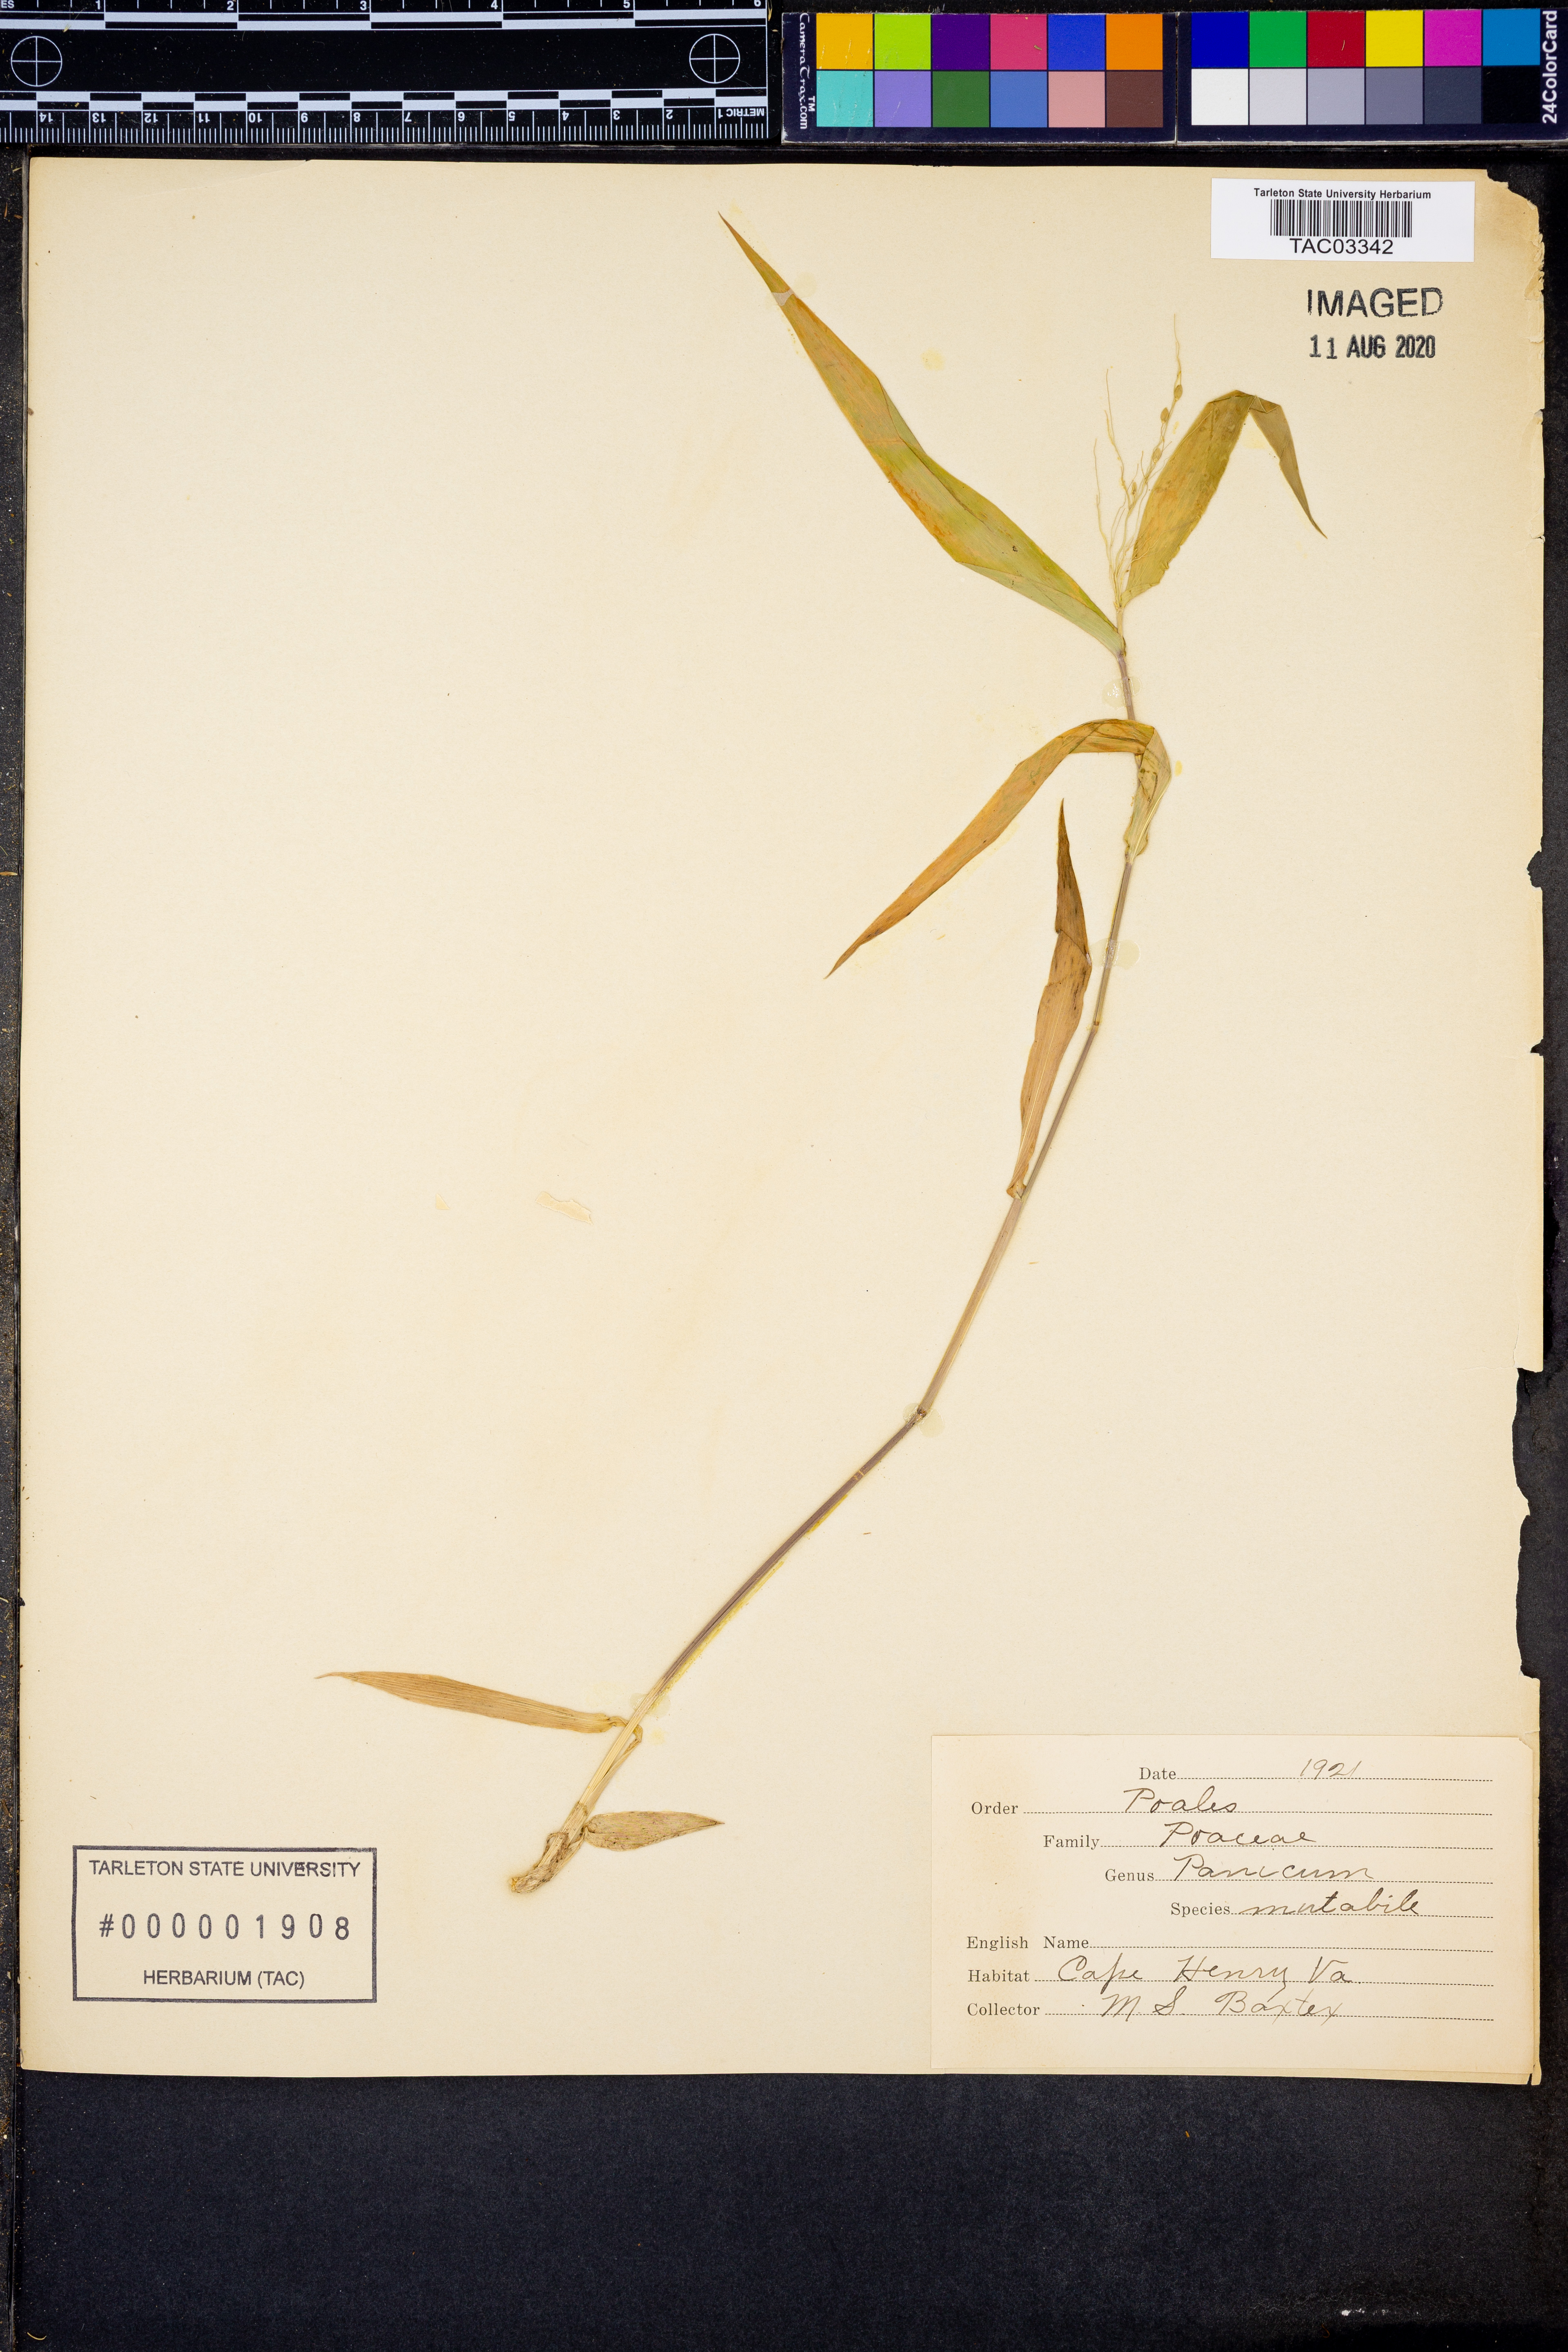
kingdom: Plantae
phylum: Tracheophyta
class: Liliopsida
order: Poales
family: Poaceae
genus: Dichanthelium
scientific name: Dichanthelium mutabile
